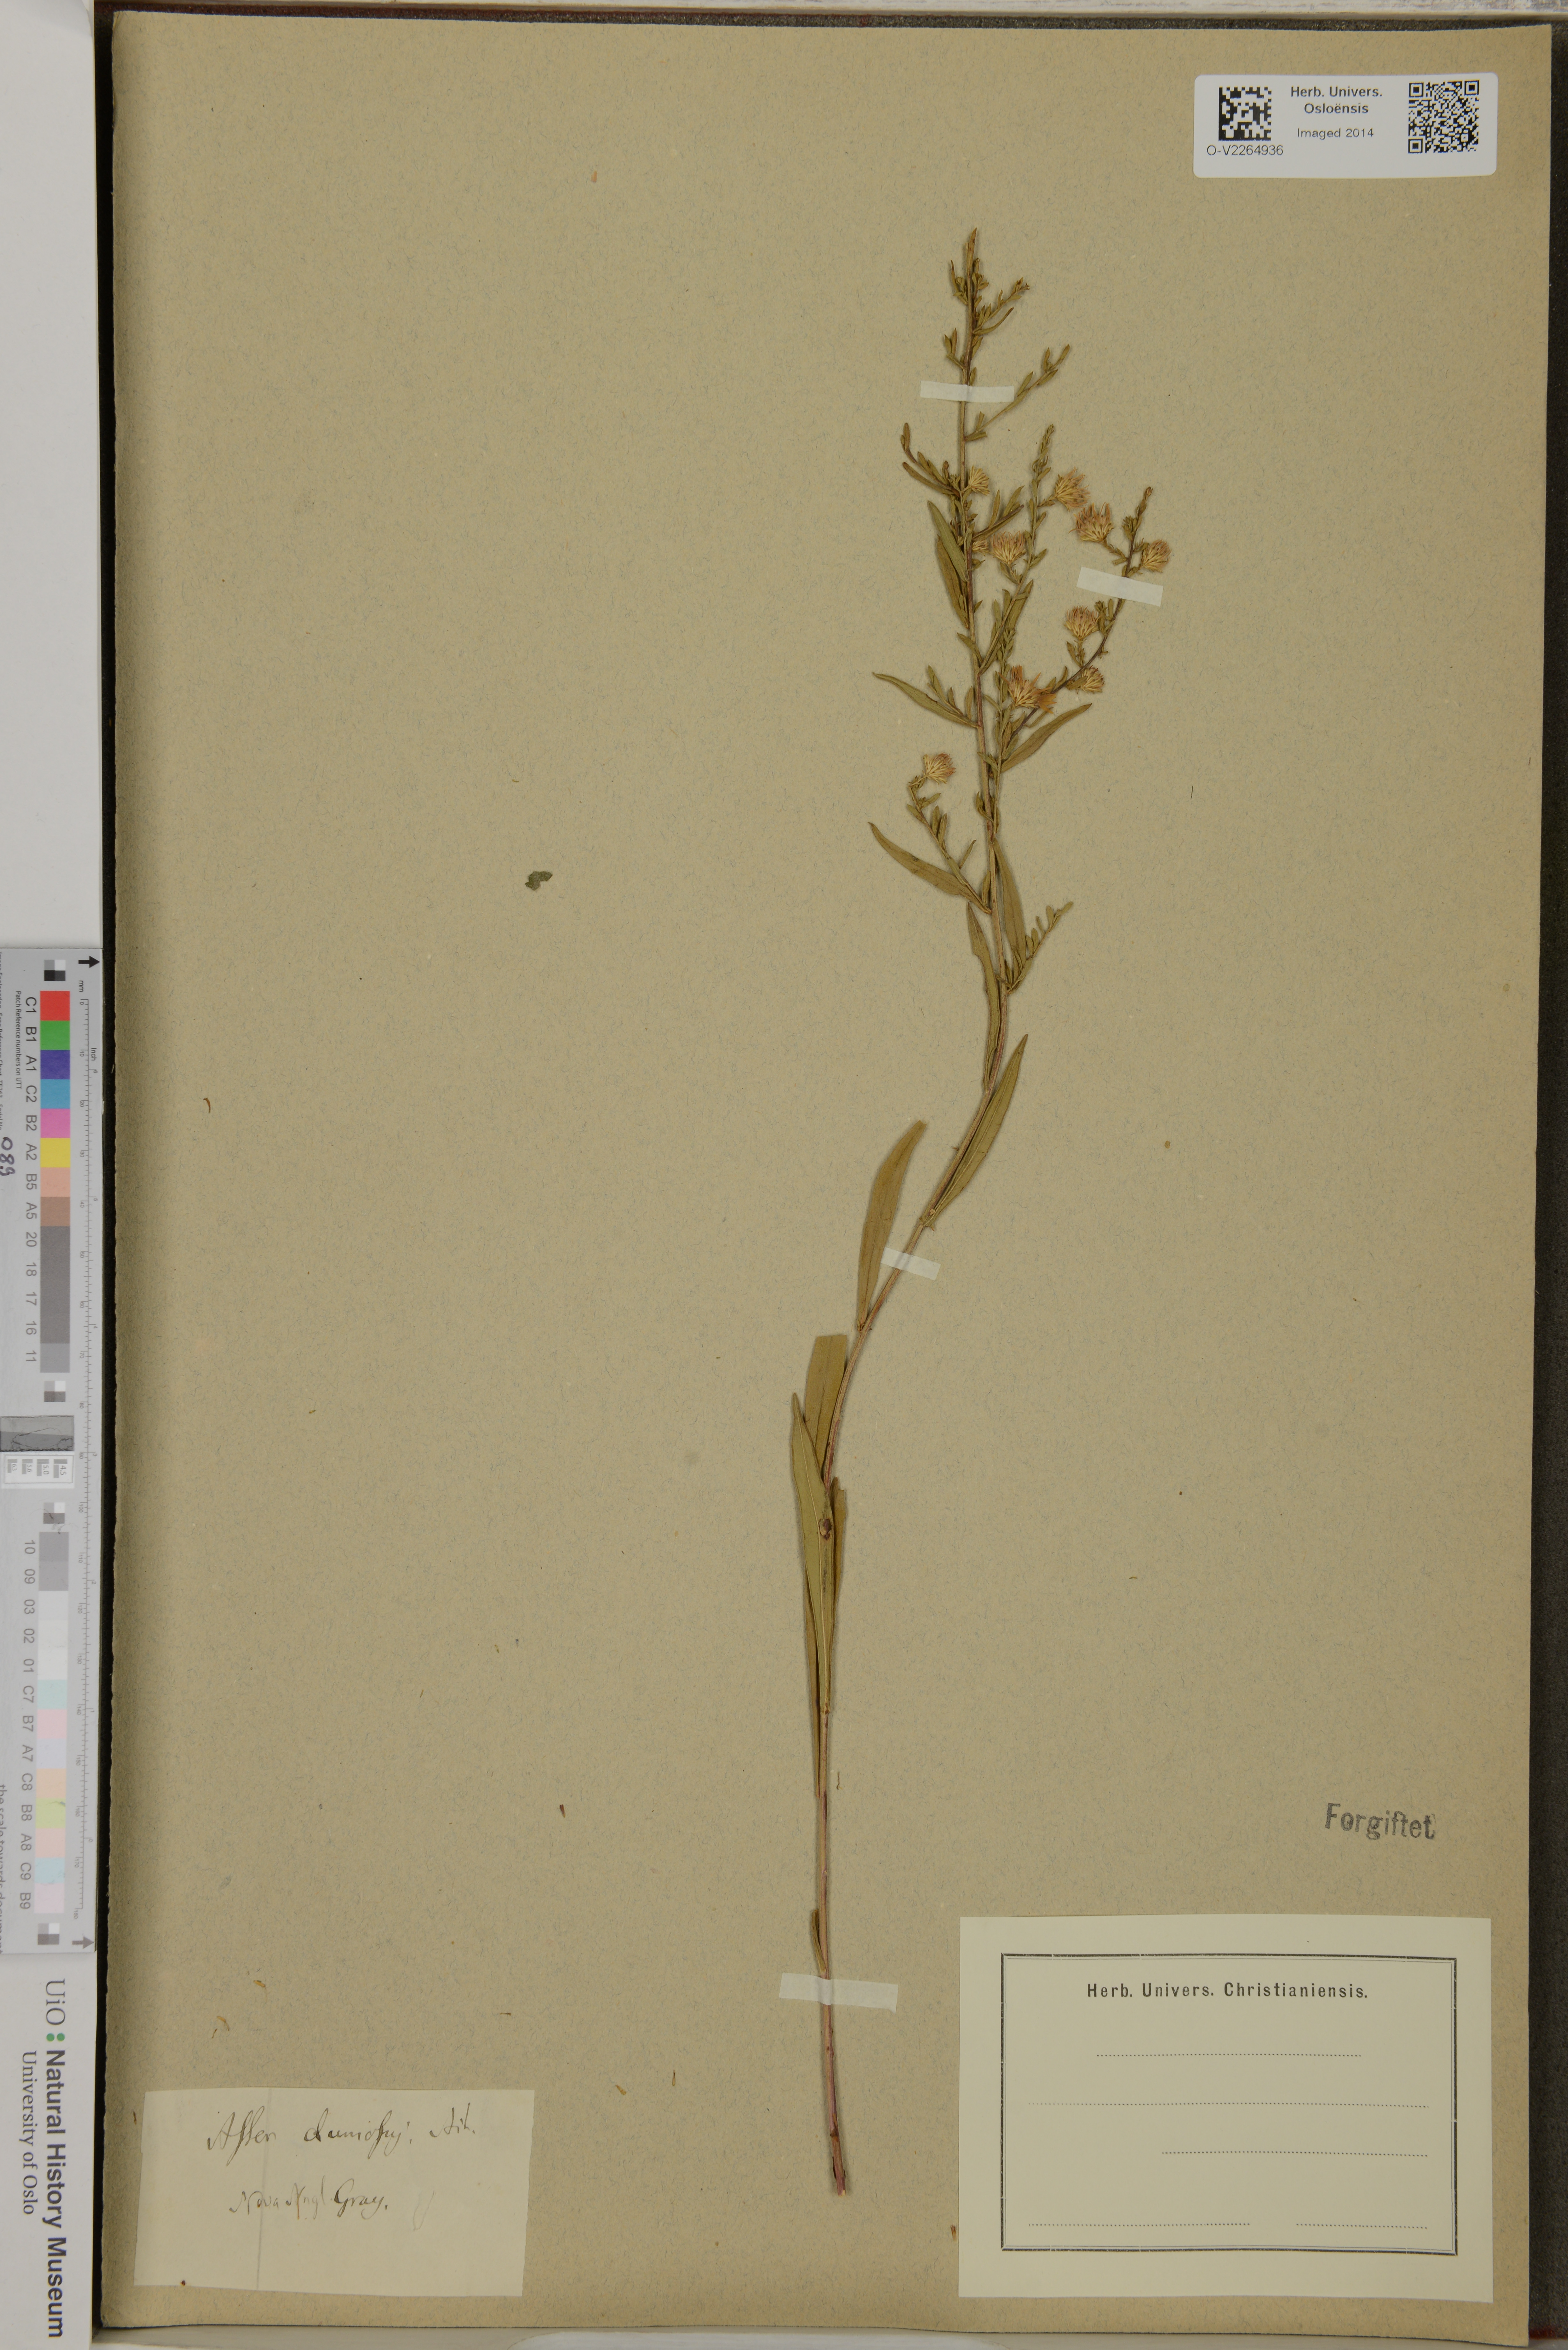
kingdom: Plantae
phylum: Tracheophyta
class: Magnoliopsida
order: Asterales
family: Asteraceae
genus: Aster
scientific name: Aster dumosus
